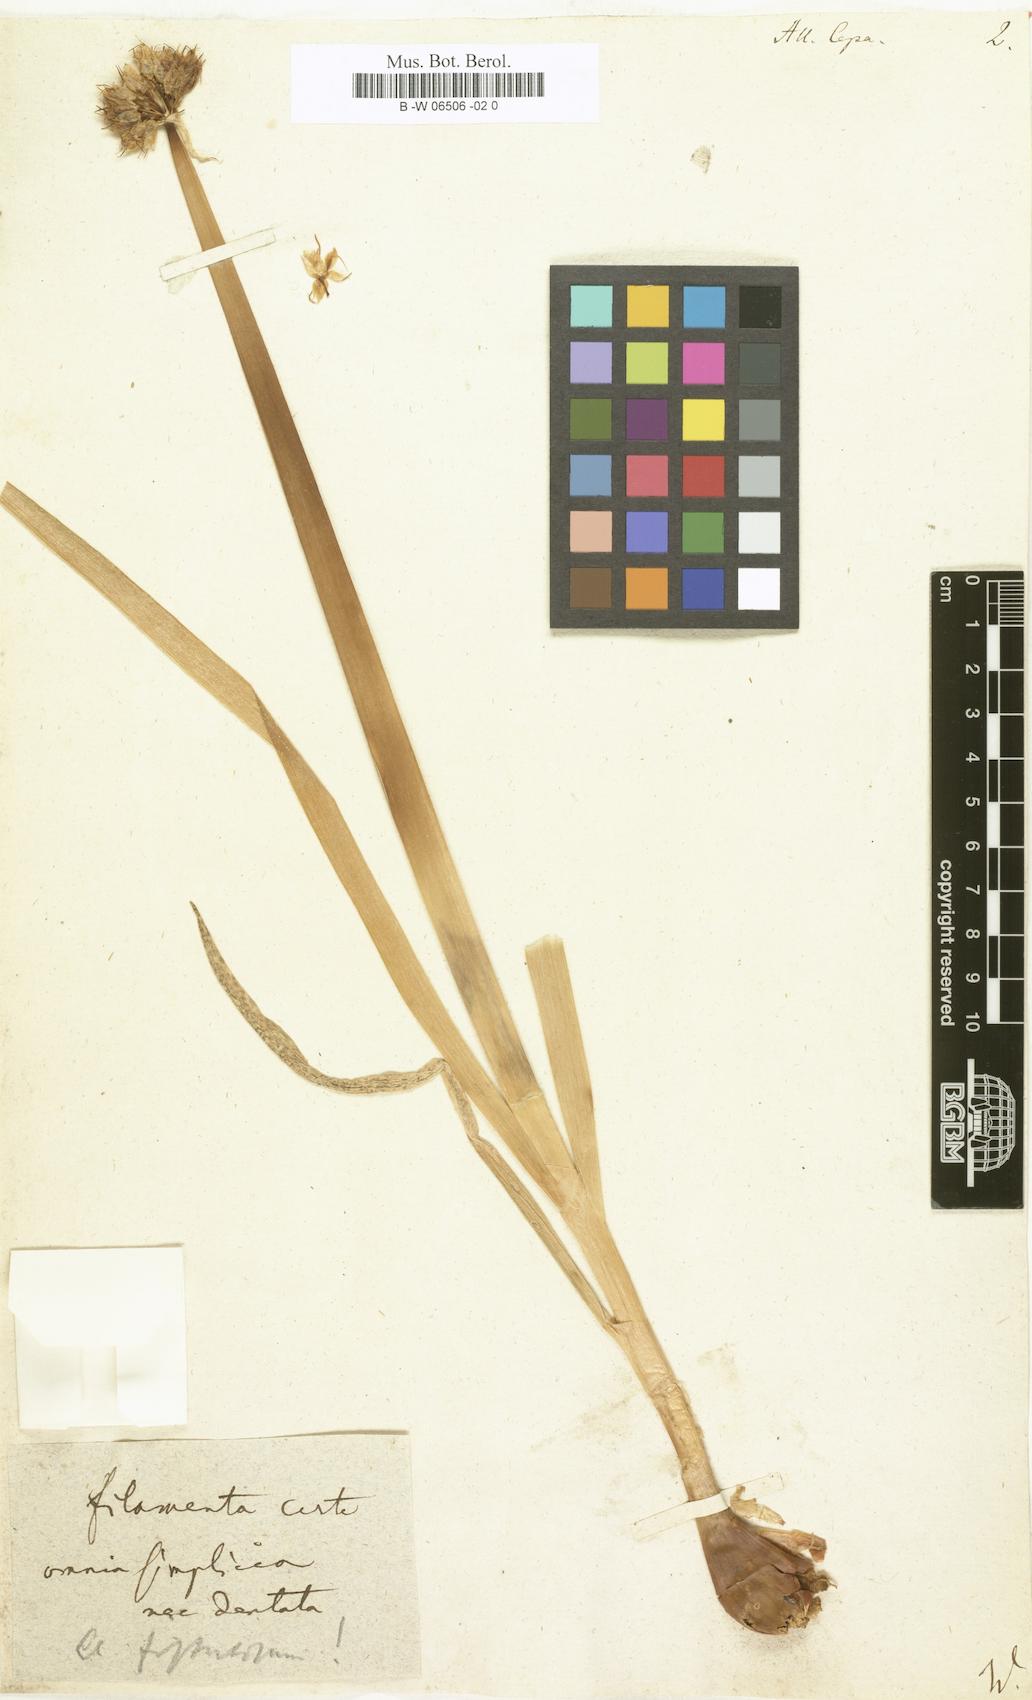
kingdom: Plantae
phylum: Tracheophyta
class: Liliopsida
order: Asparagales
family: Amaryllidaceae
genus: Allium
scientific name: Allium cepa
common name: Onion
